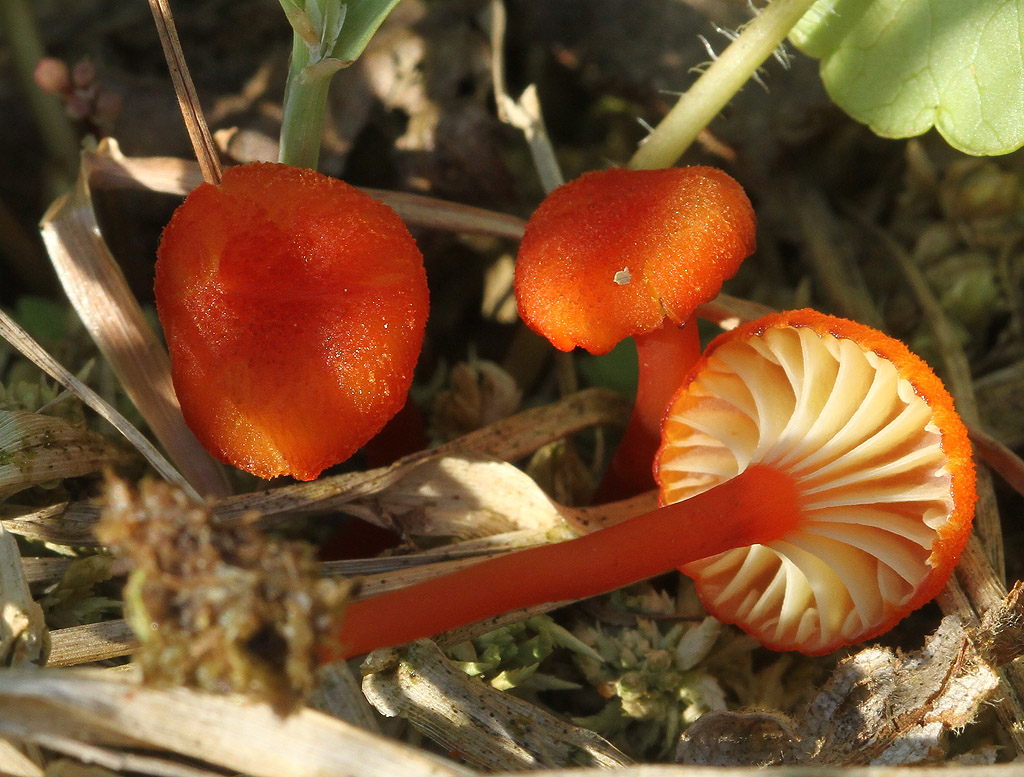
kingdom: Fungi
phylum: Basidiomycota
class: Agaricomycetes
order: Agaricales
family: Hygrophoraceae
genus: Hygrocybe
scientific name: Hygrocybe coccineocrenata
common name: tørvemos-vokshat
